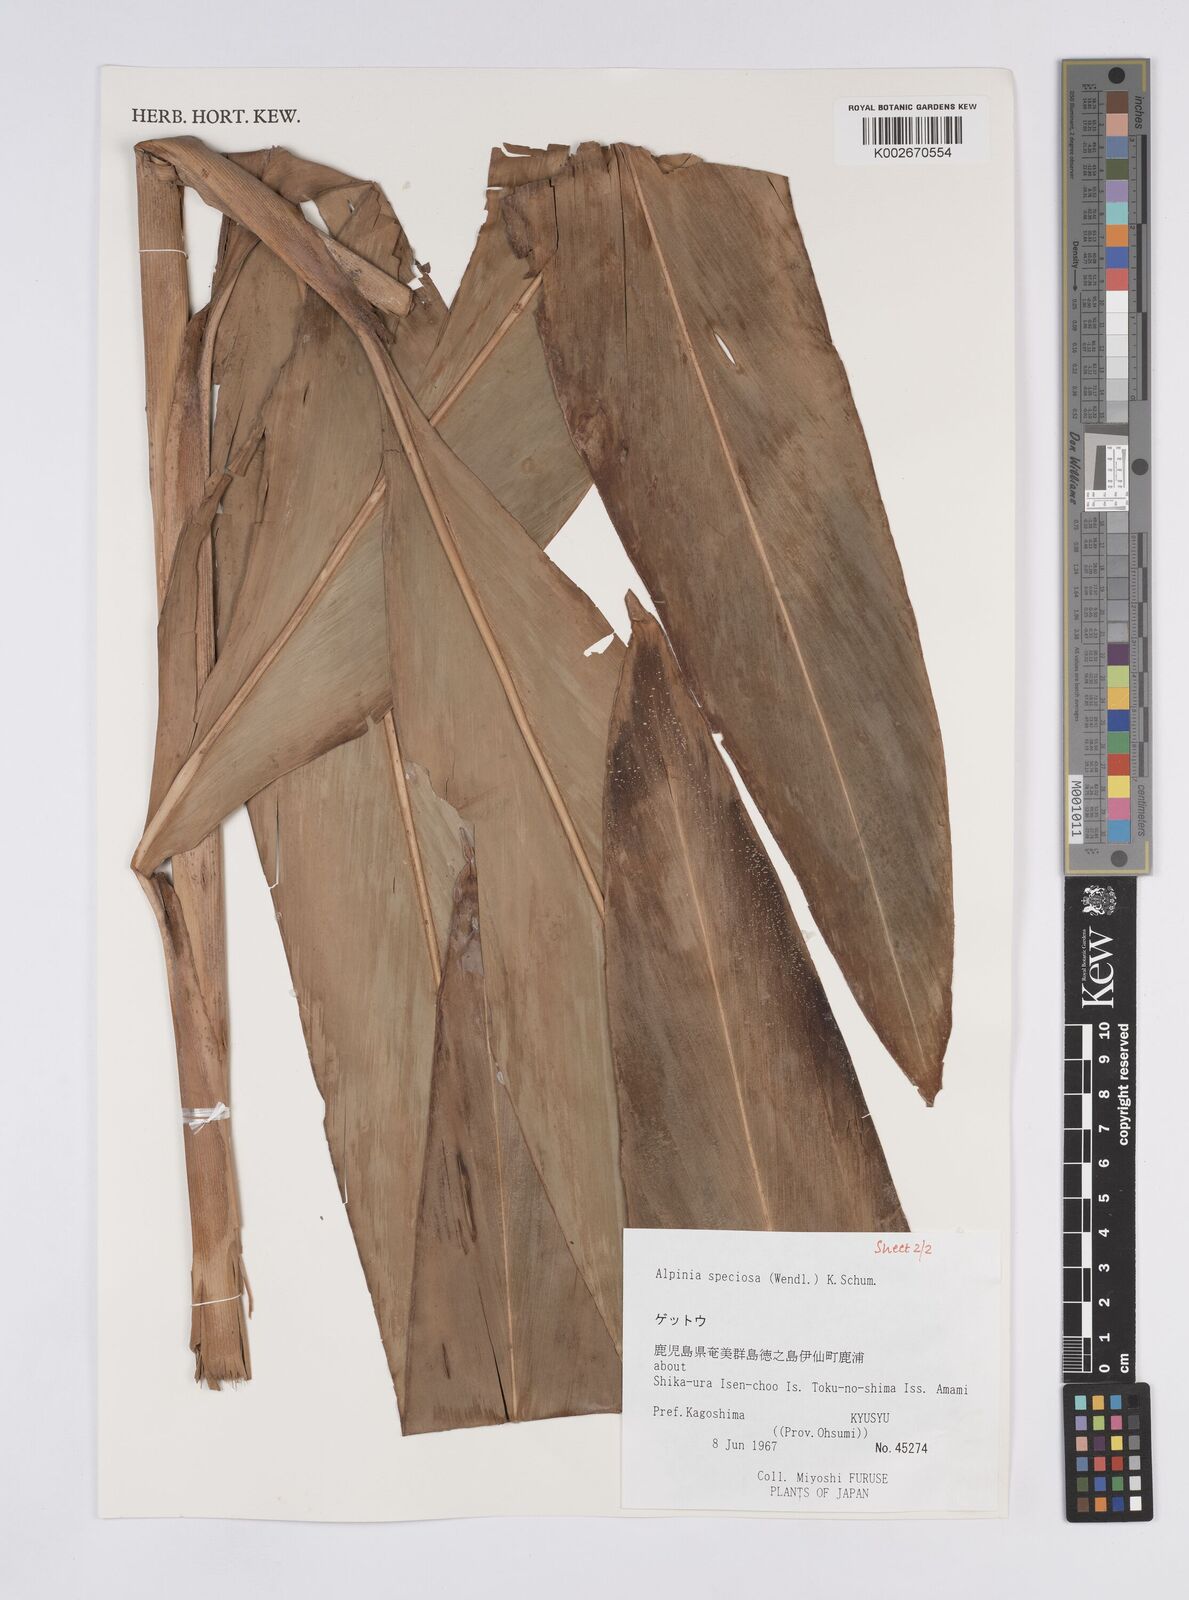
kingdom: Plantae
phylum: Tracheophyta
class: Liliopsida
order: Zingiberales
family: Zingiberaceae
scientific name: Zingiberaceae
